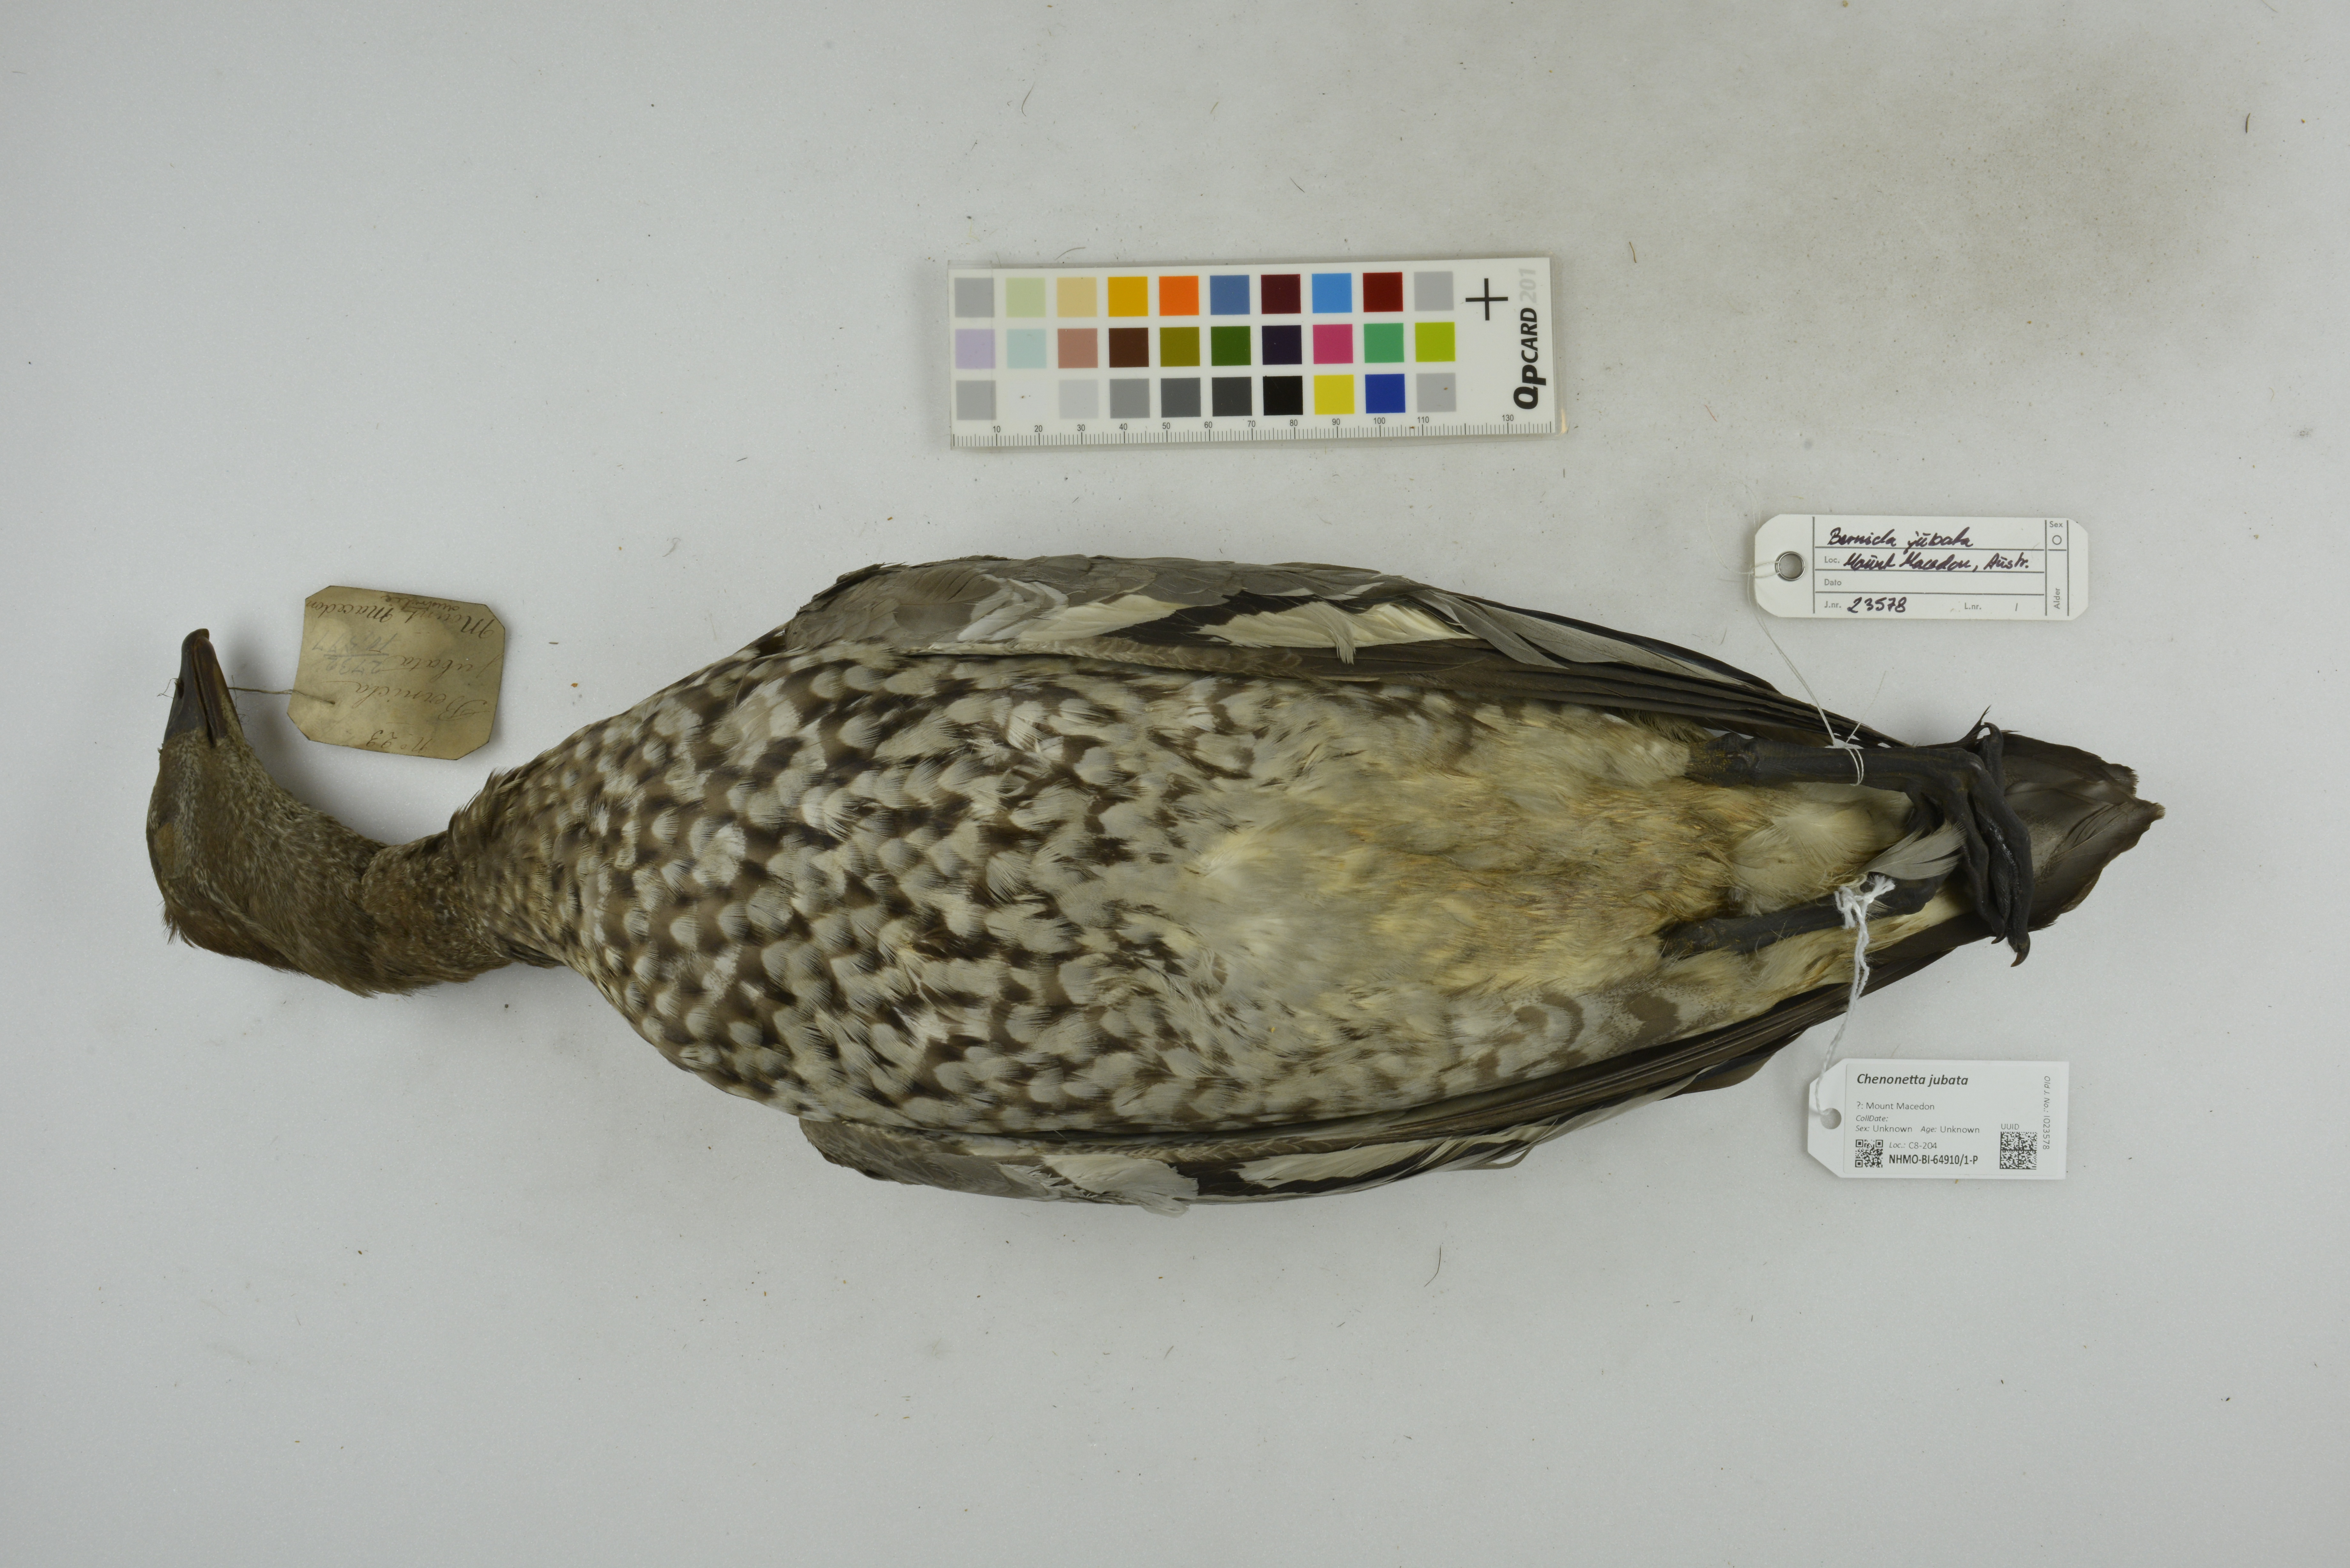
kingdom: Animalia
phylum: Chordata
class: Aves
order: Anseriformes
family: Anatidae
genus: Chenonetta
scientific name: Chenonetta jubata
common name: Maned duck
